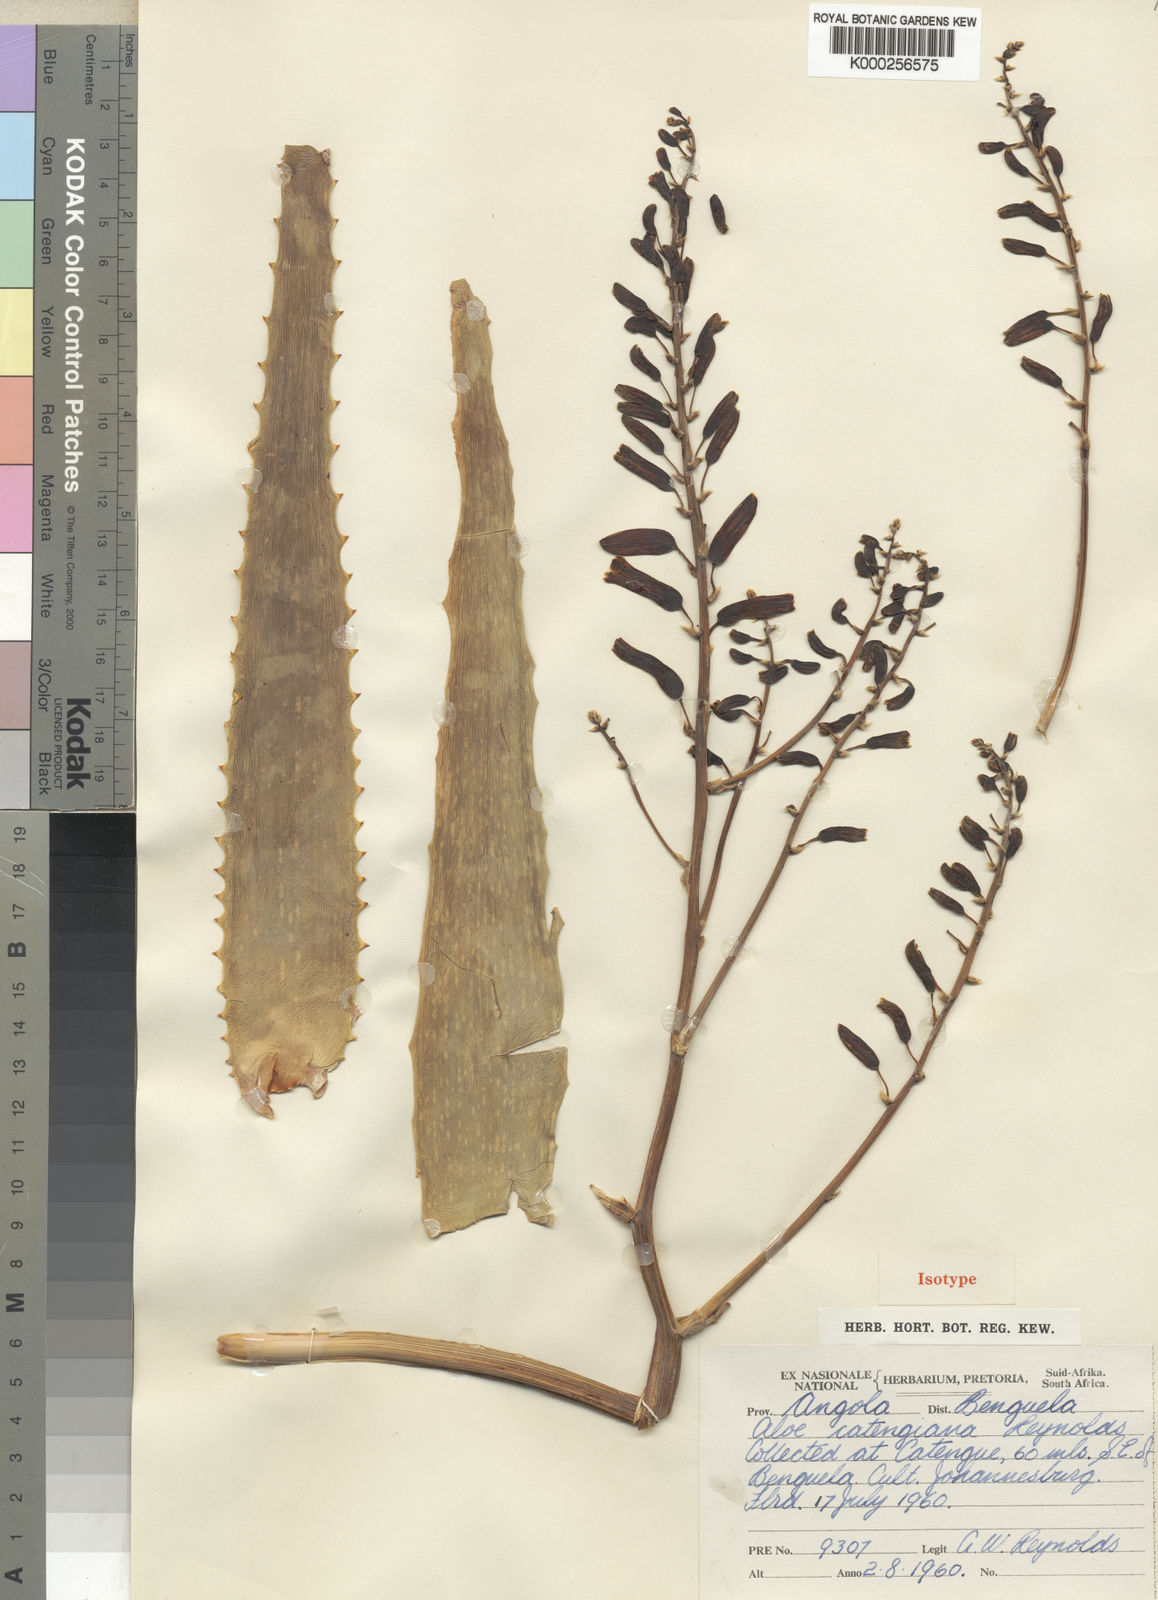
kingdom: Plantae
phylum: Tracheophyta
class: Liliopsida
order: Asparagales
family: Asphodelaceae
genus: Aloe
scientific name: Aloe catengiana
